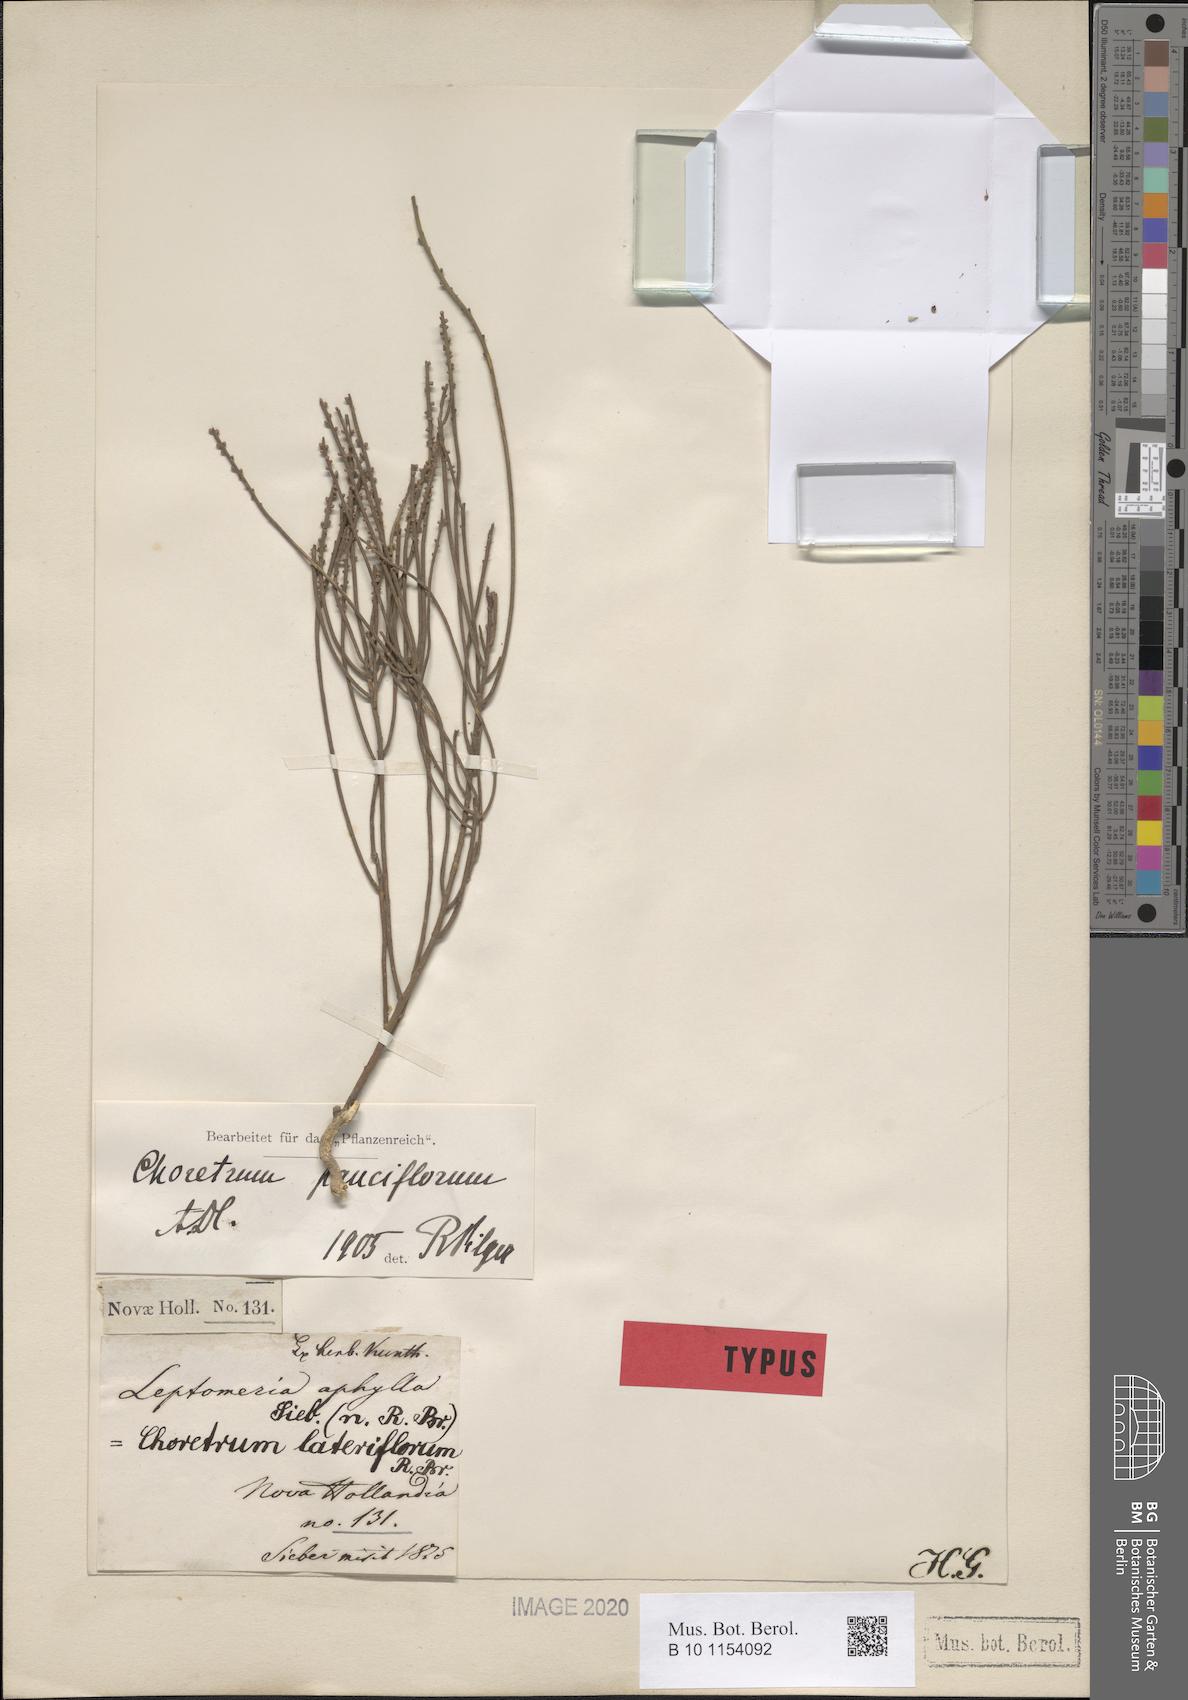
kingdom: Plantae
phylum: Tracheophyta
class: Magnoliopsida
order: Santalales
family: Amphorogynaceae
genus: Choretrum
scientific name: Choretrum pauciflorum
